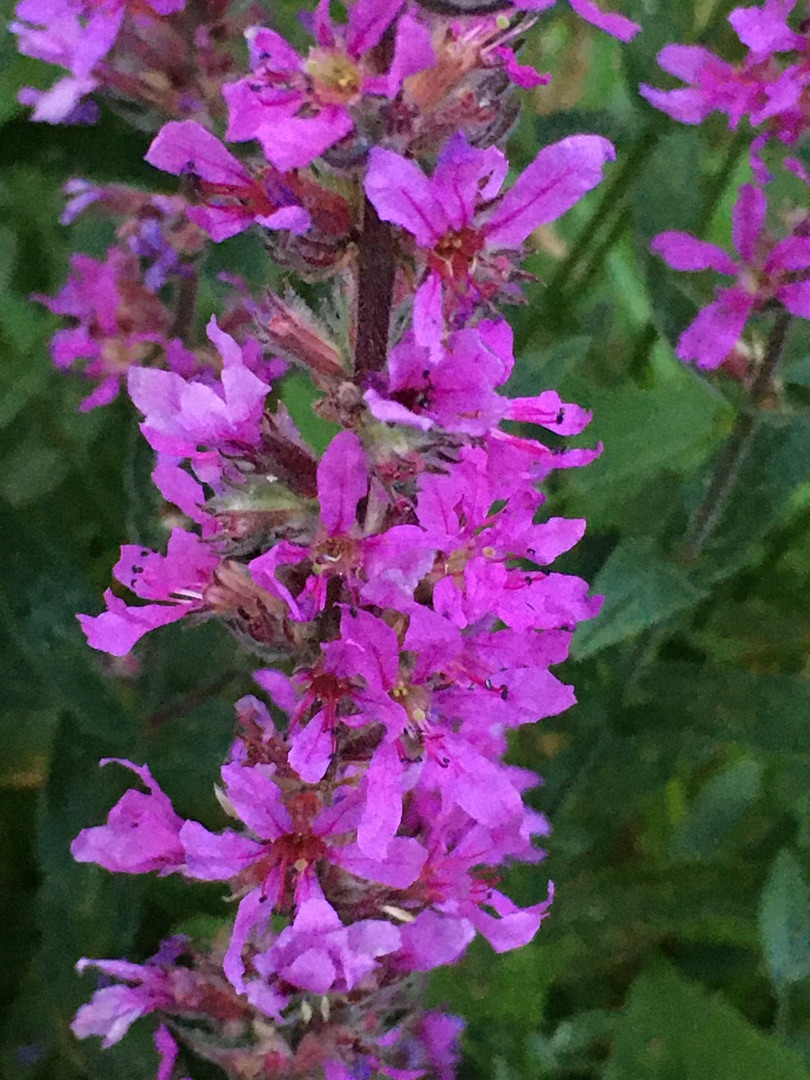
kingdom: Plantae
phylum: Tracheophyta
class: Magnoliopsida
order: Myrtales
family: Lythraceae
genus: Lythrum
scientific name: Lythrum salicaria
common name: Kattehale
